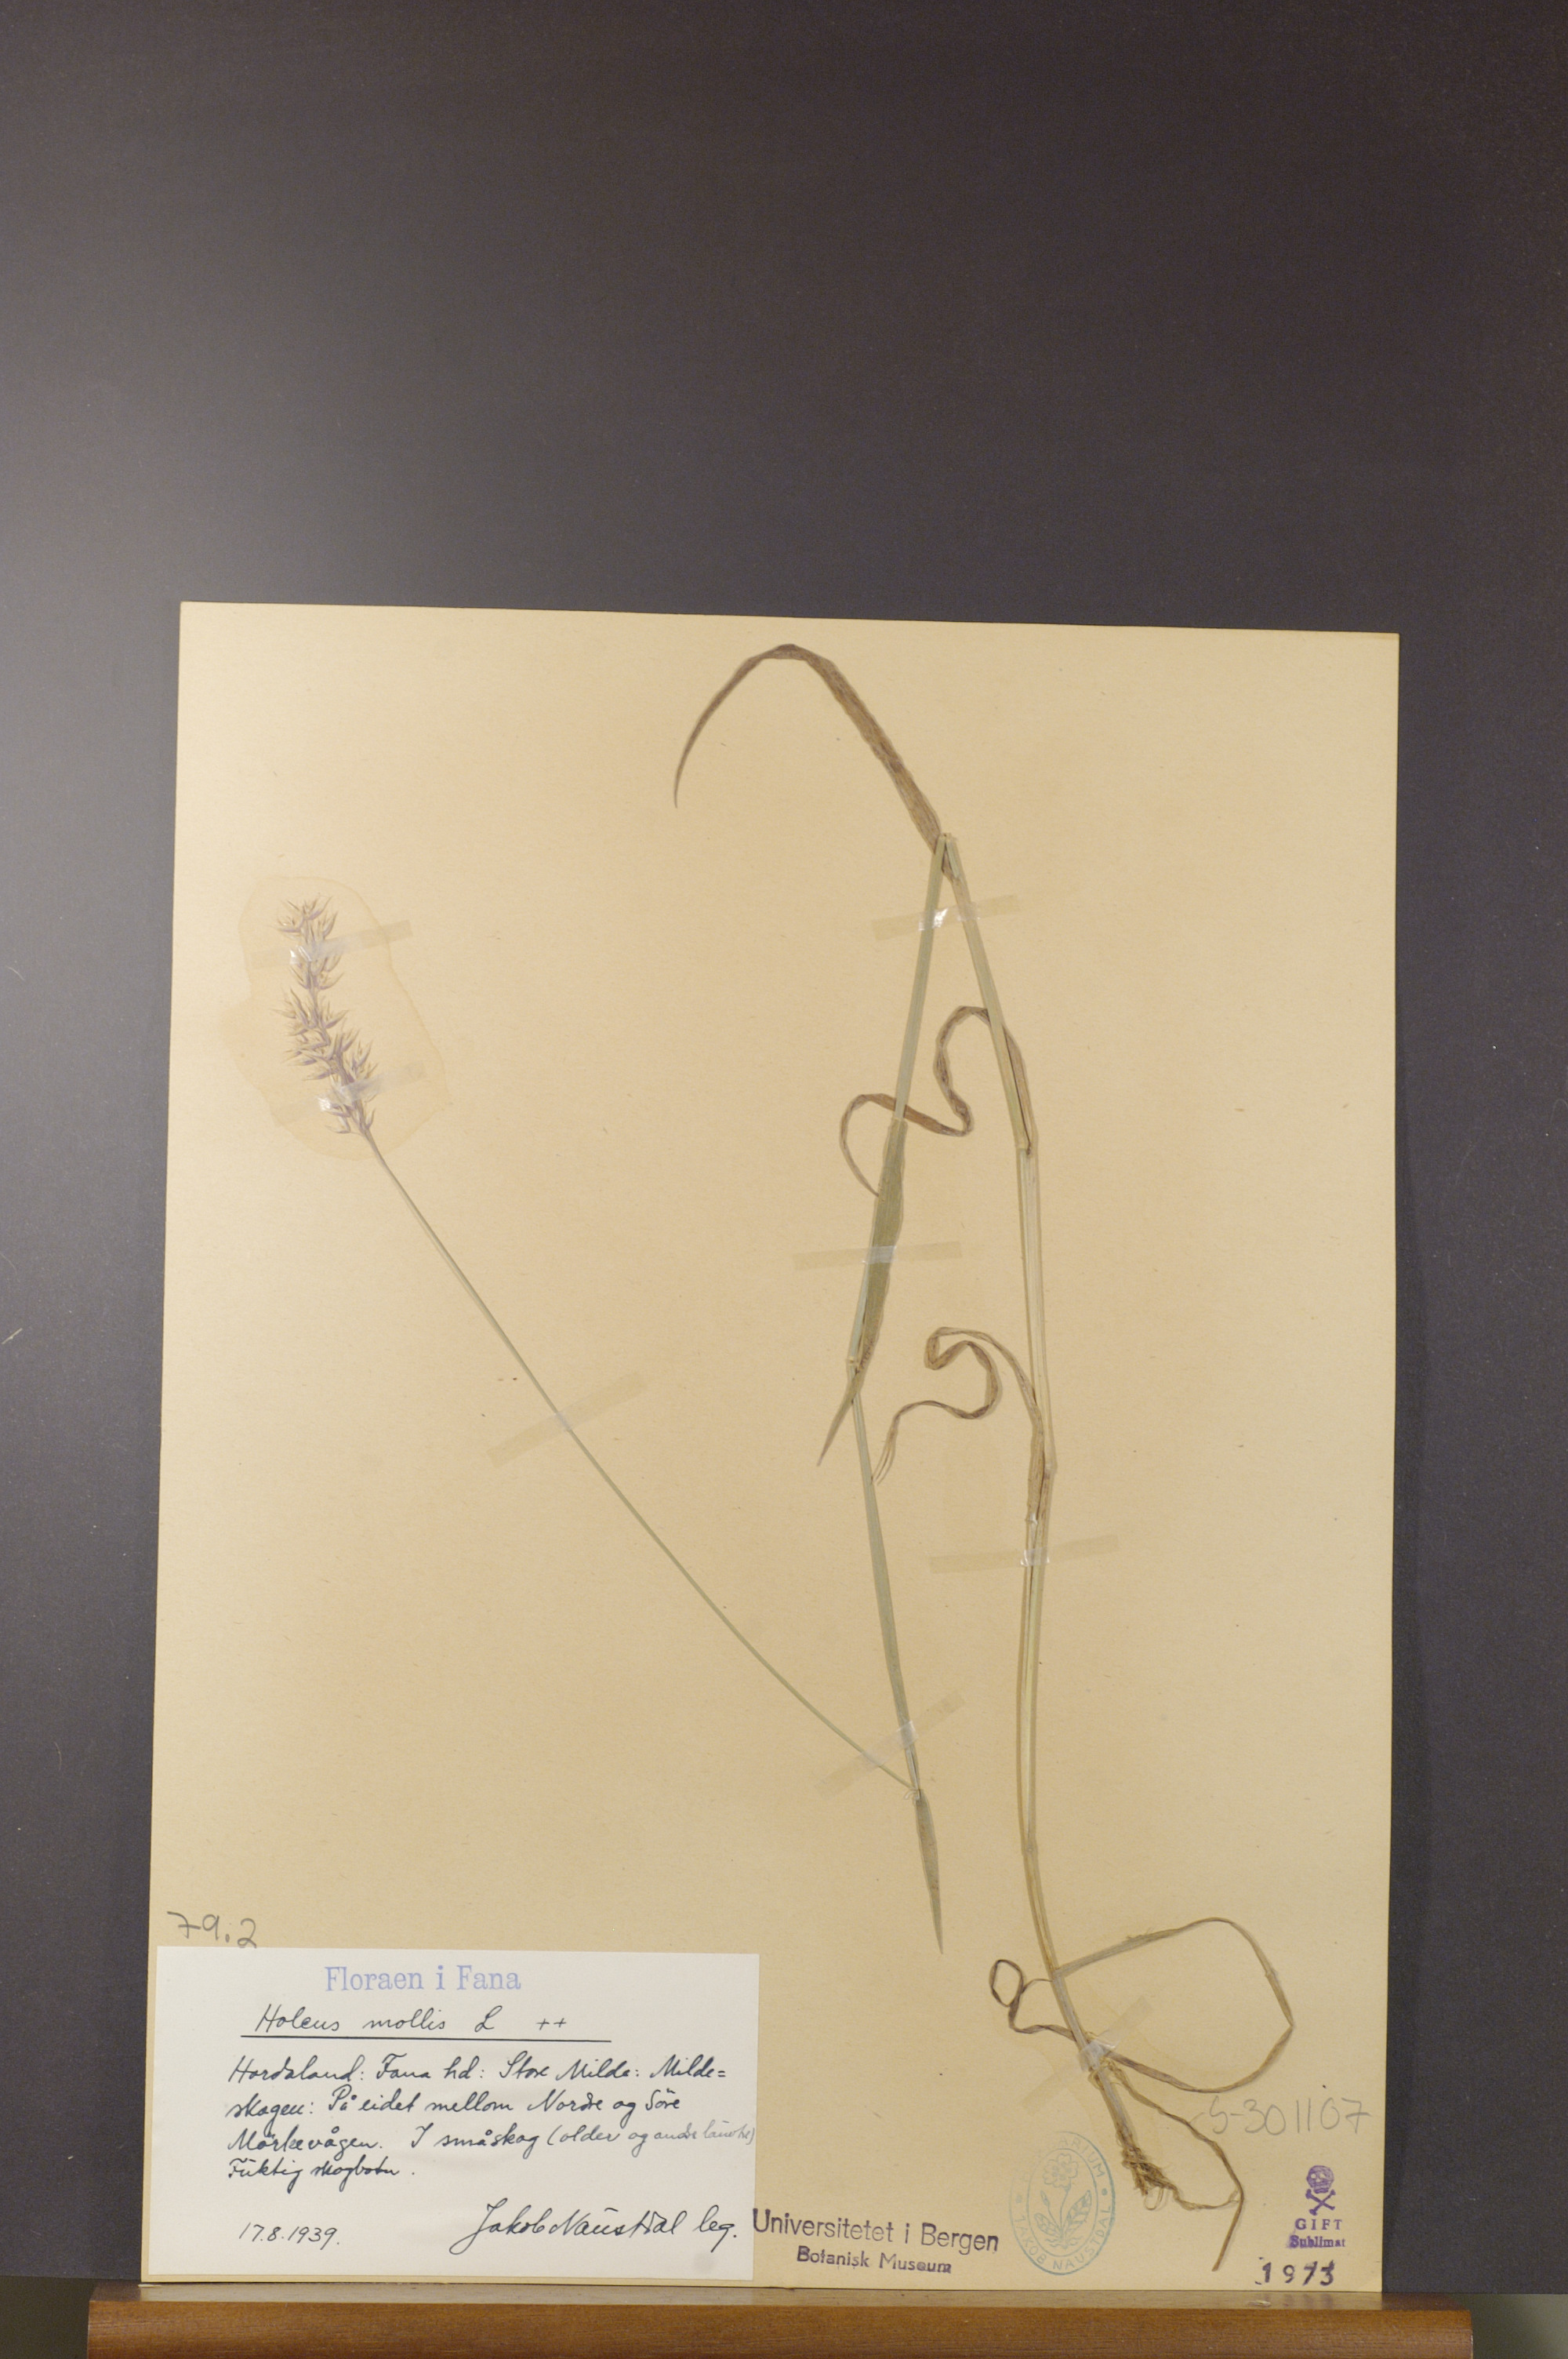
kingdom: Plantae
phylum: Tracheophyta
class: Liliopsida
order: Poales
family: Poaceae
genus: Holcus
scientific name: Holcus mollis
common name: Creeping velvetgrass
